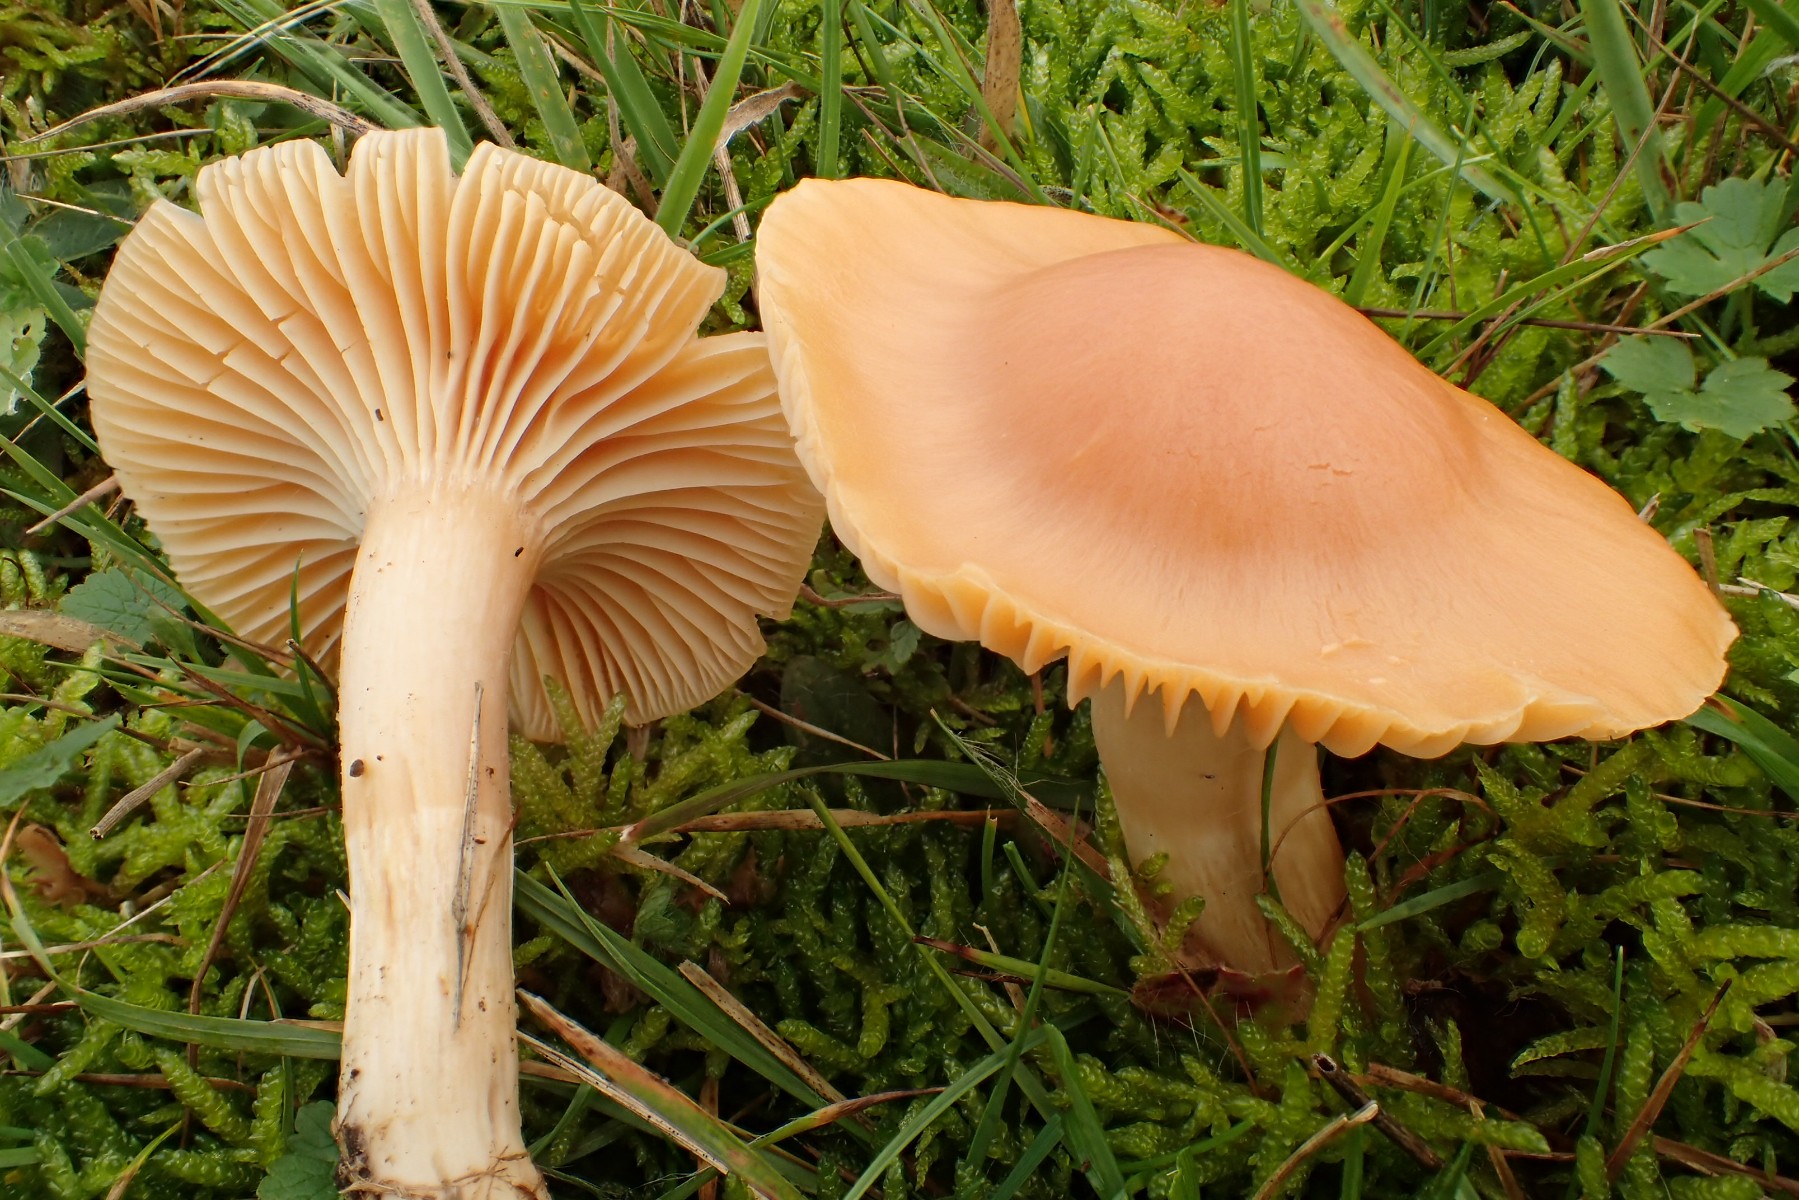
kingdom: Fungi
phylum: Basidiomycota
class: Agaricomycetes
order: Agaricales
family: Hygrophoraceae
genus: Cuphophyllus
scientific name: Cuphophyllus pratensis
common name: eng-vokshat
